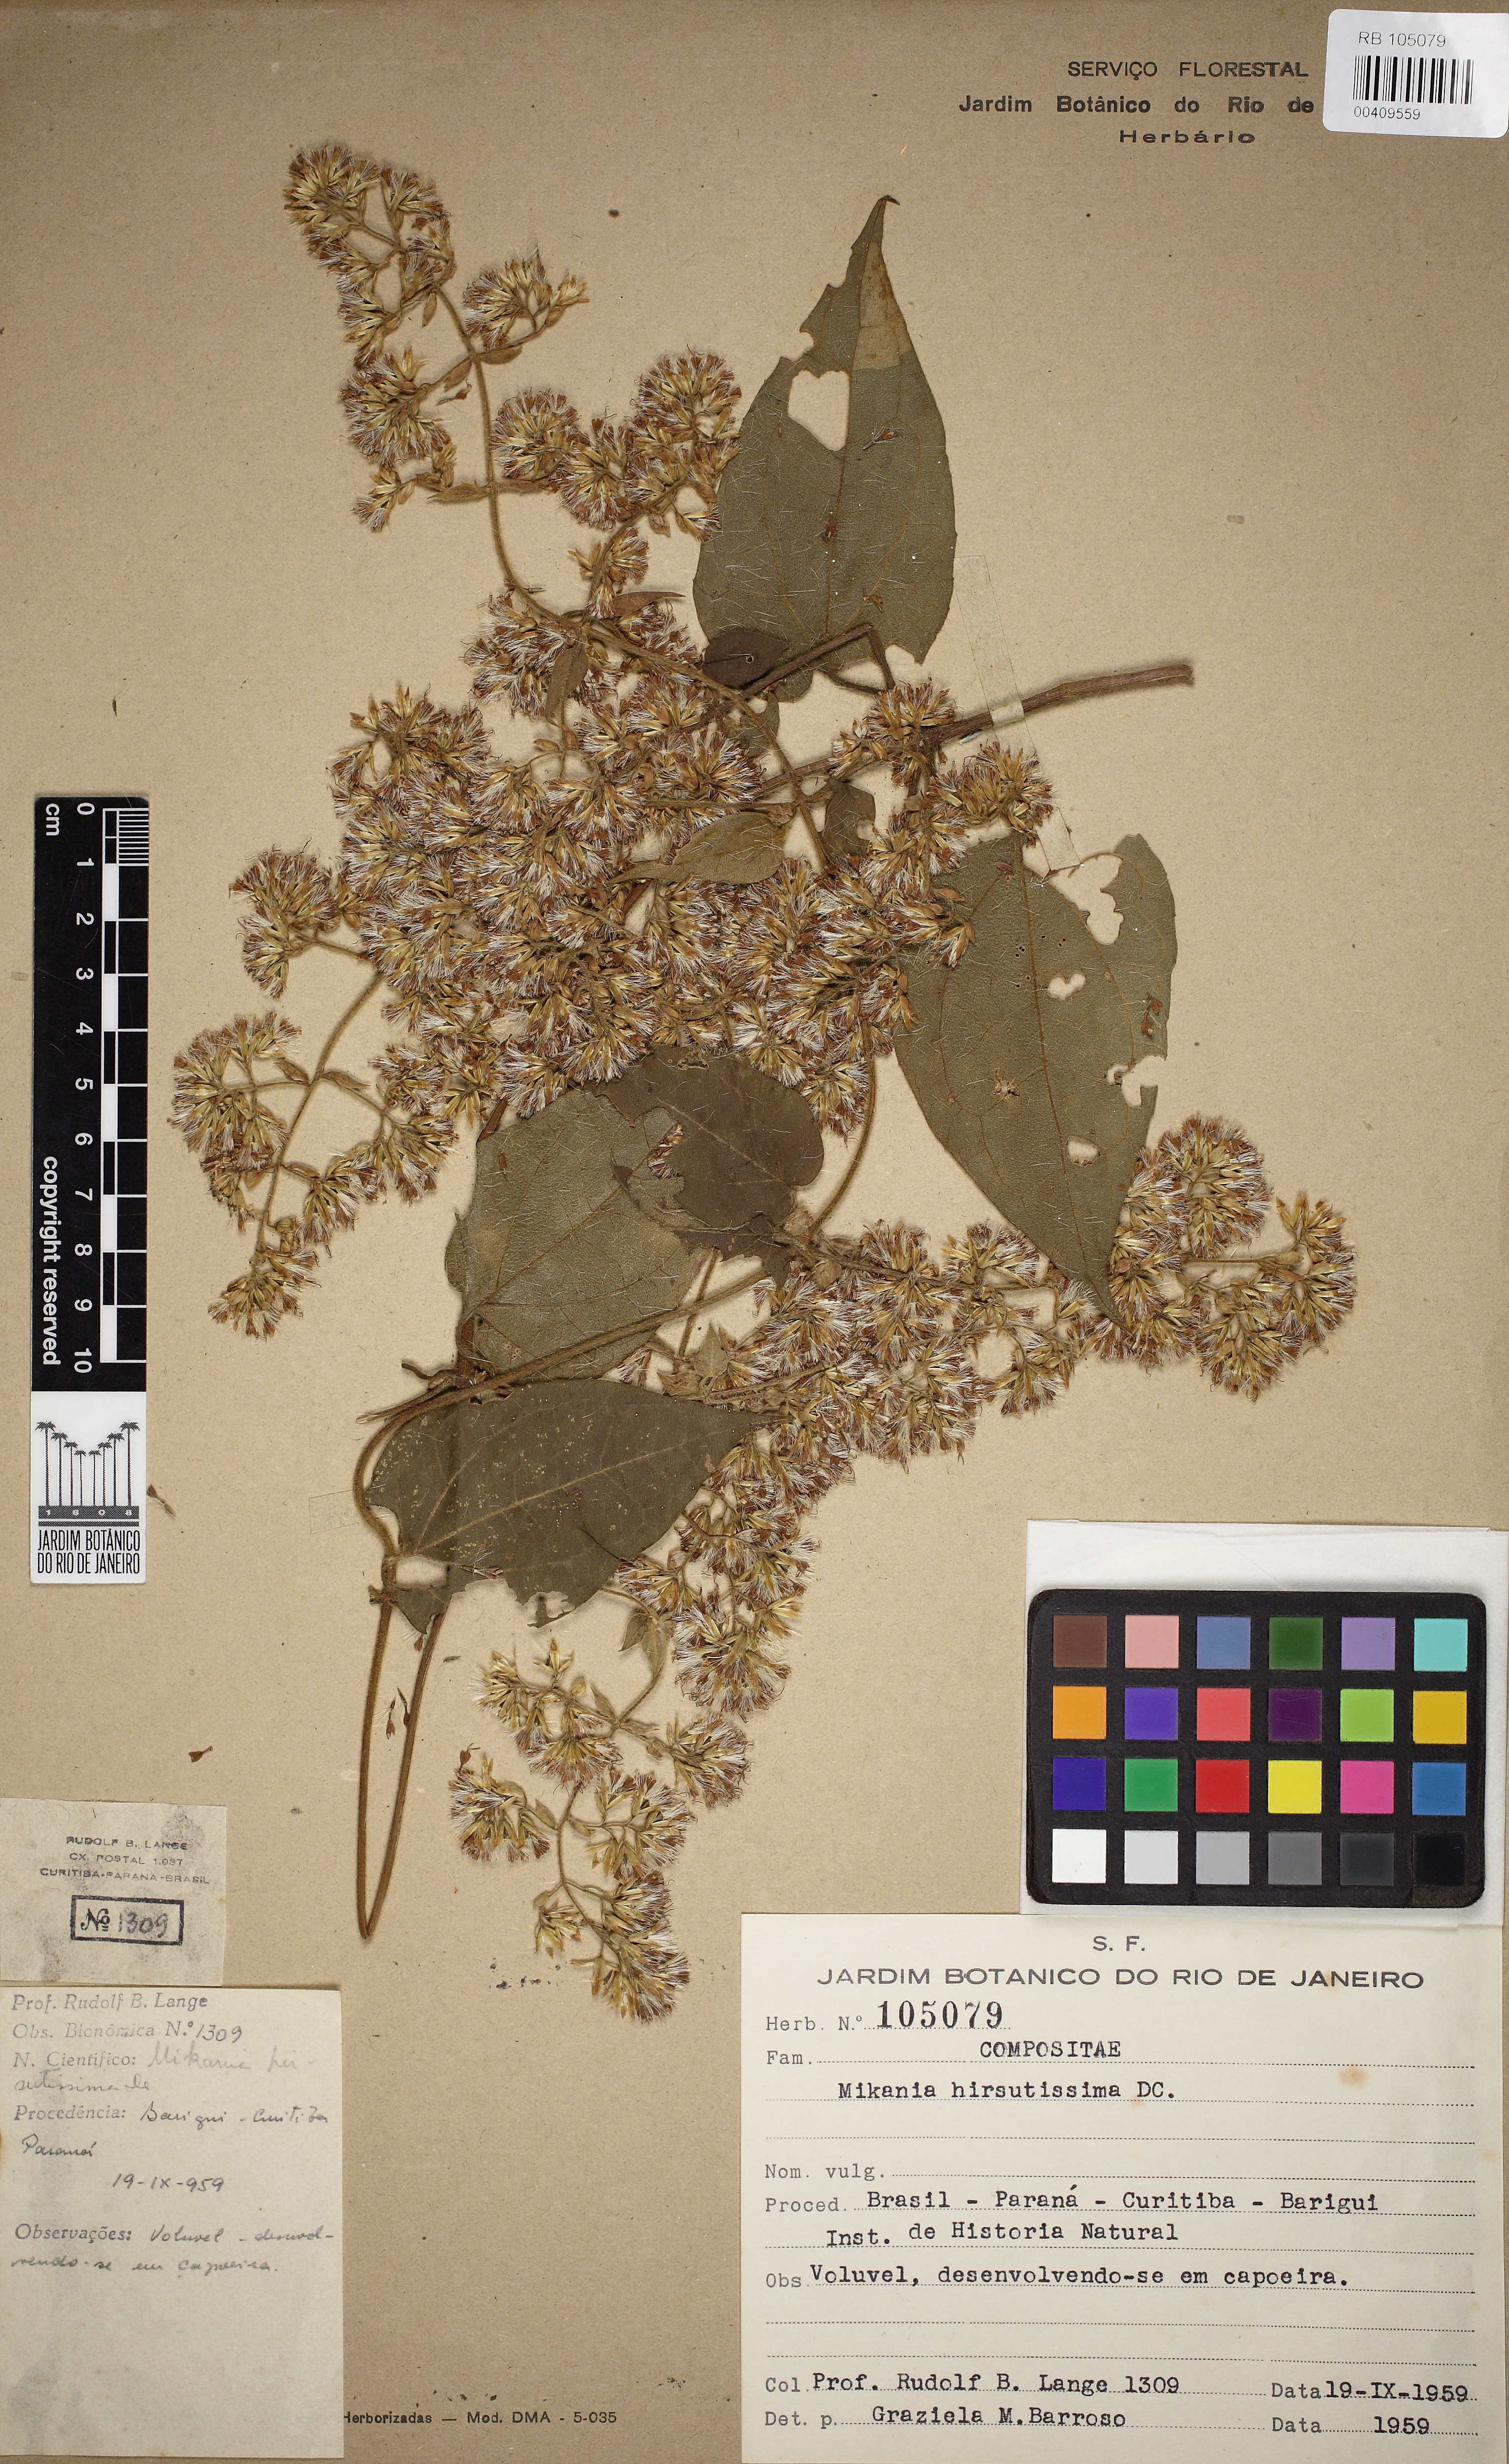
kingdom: Plantae
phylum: Tracheophyta
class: Magnoliopsida
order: Asterales
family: Asteraceae
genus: Mikania
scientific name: Mikania banisteriae
